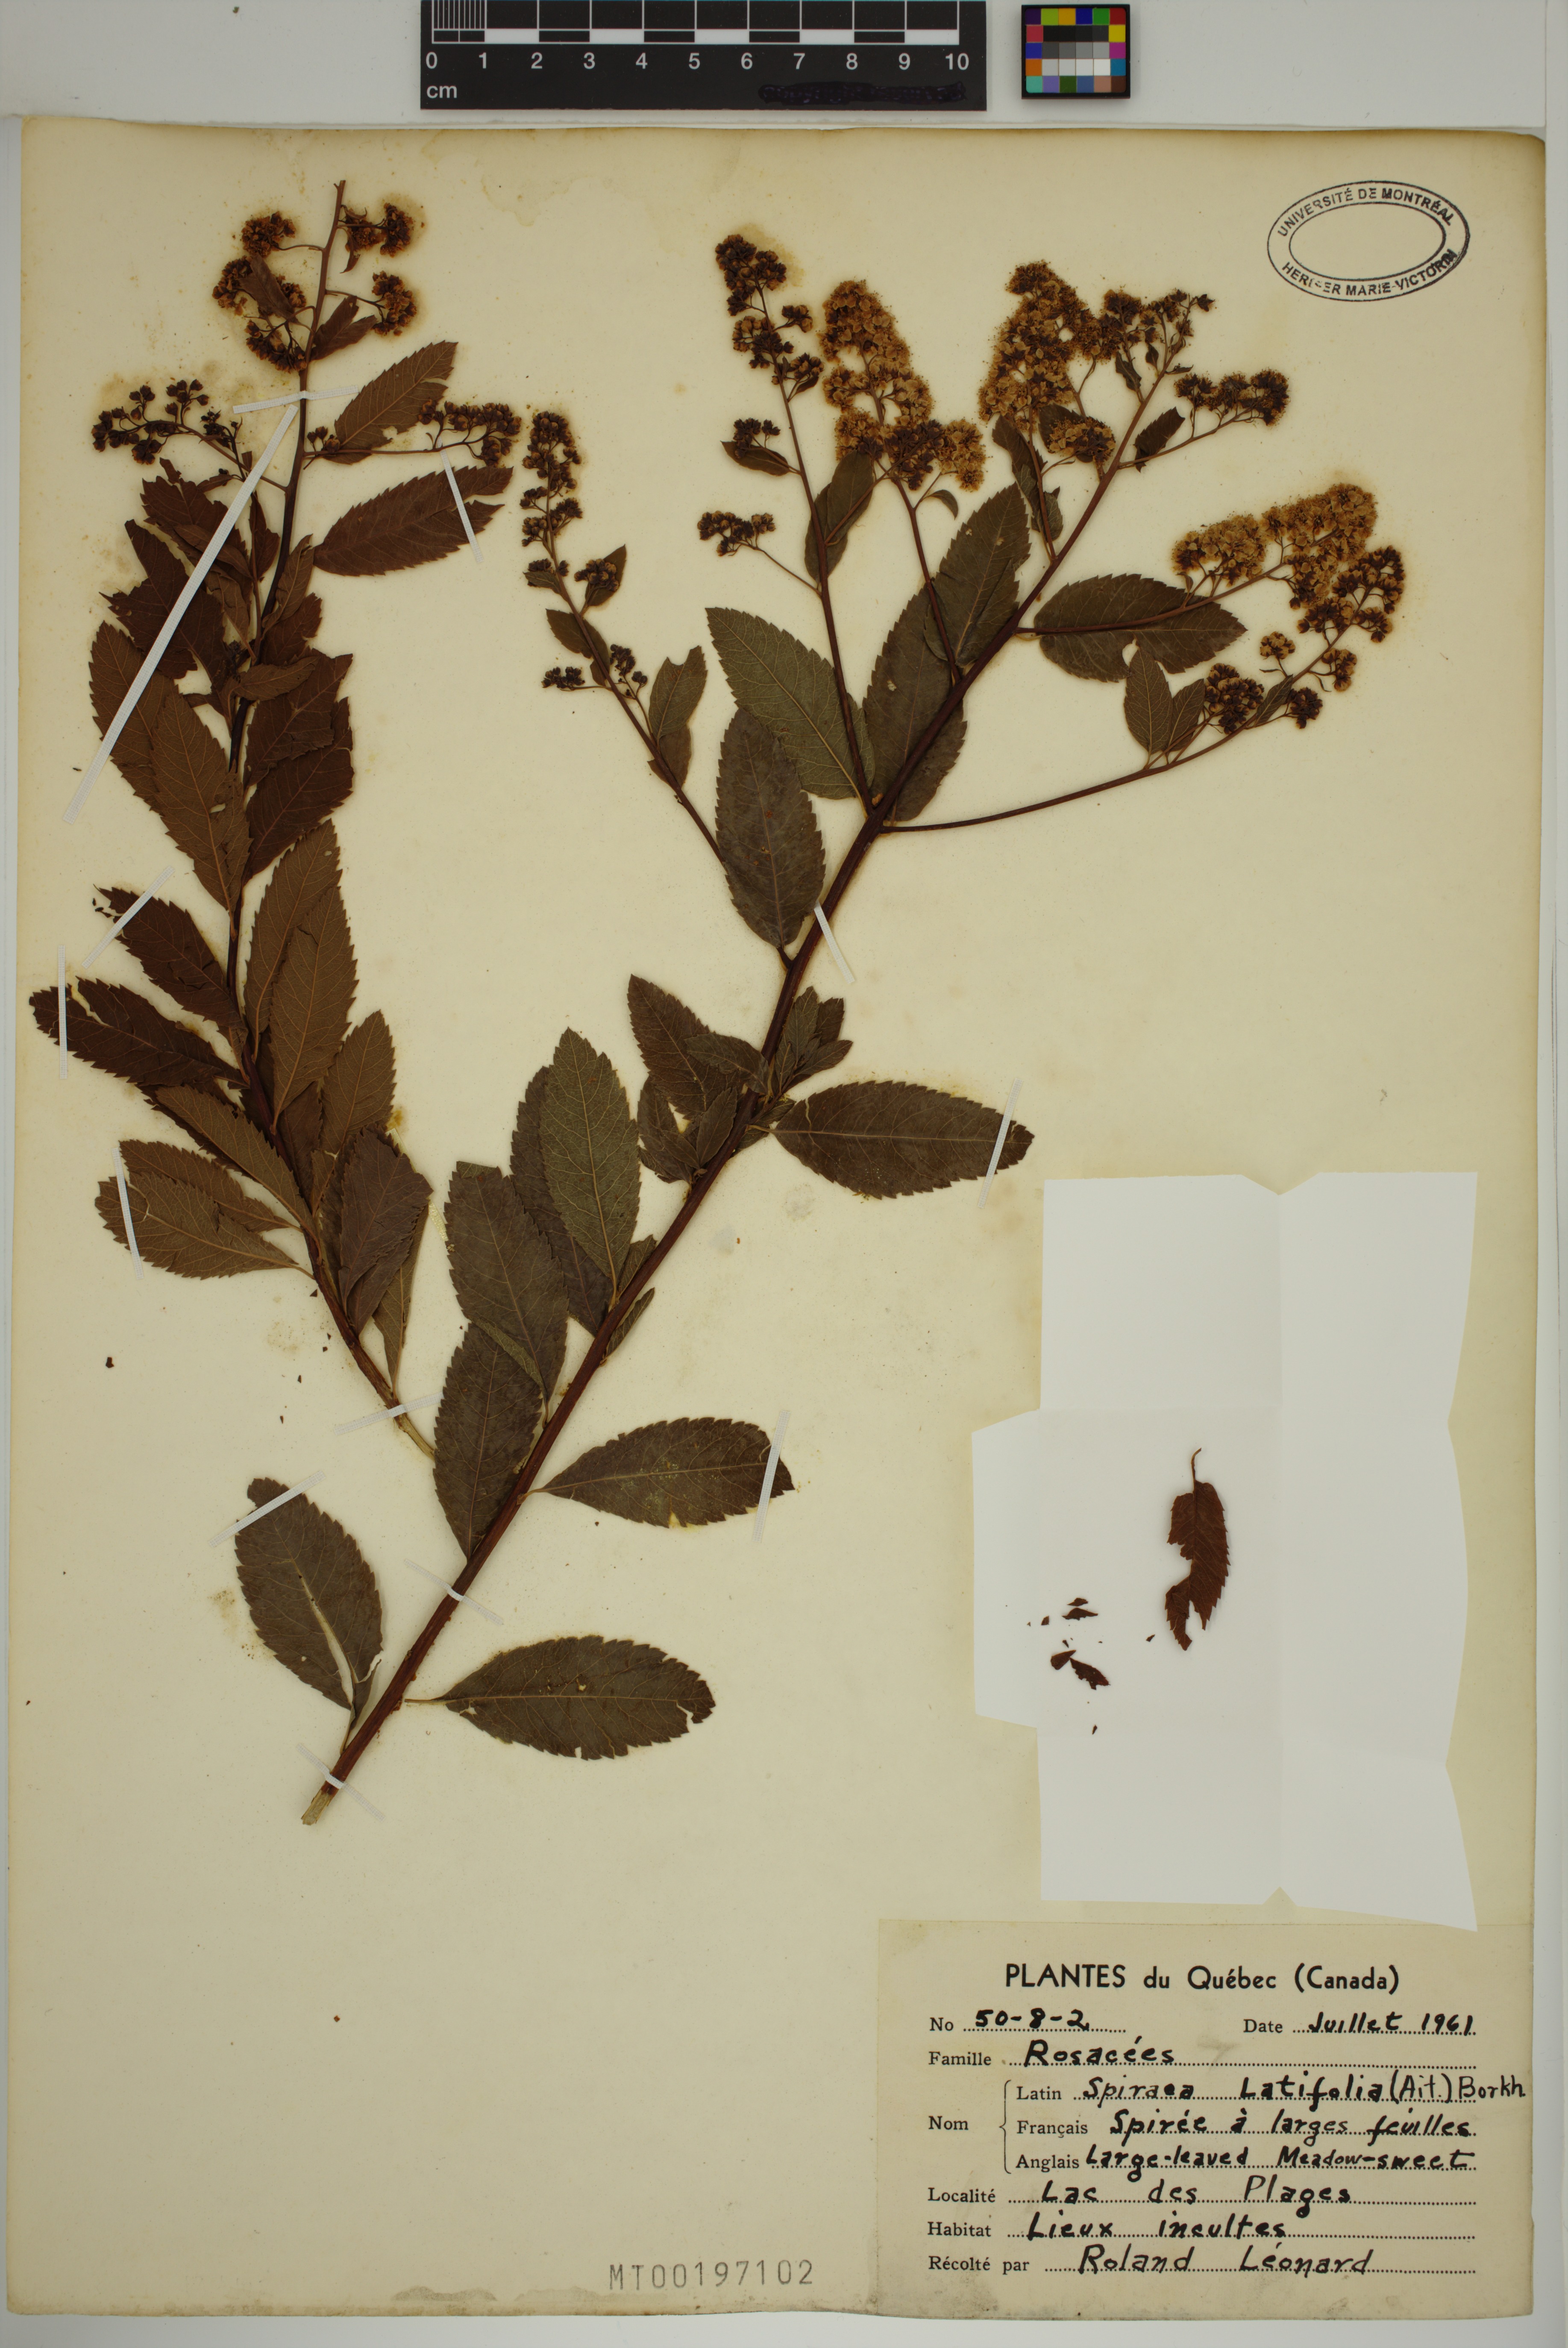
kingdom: Plantae
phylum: Tracheophyta
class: Magnoliopsida
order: Rosales
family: Rosaceae
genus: Spiraea
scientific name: Spiraea alba
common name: Pale bridewort
